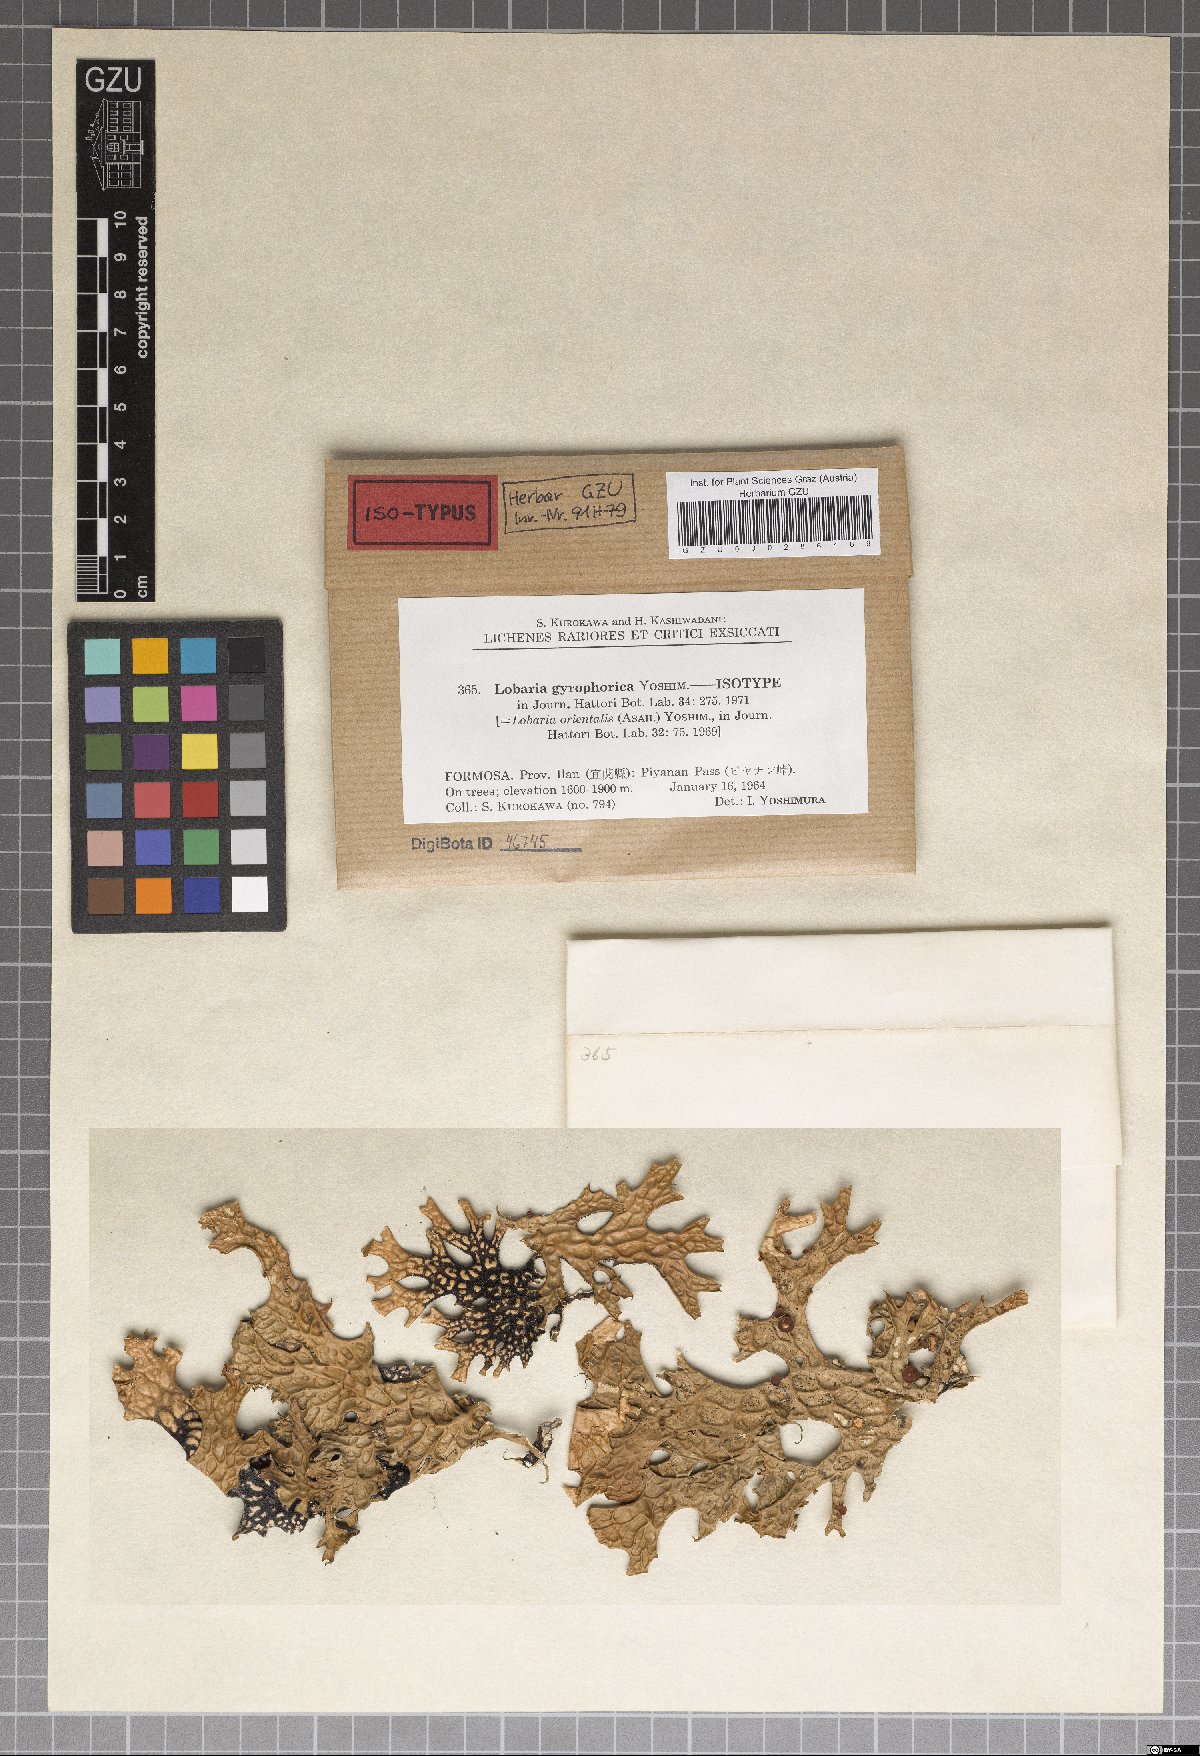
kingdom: Fungi
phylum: Ascomycota
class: Lecanoromycetes
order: Peltigerales
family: Lobariaceae
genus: Lobaria
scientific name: Lobaria gyrophorica
